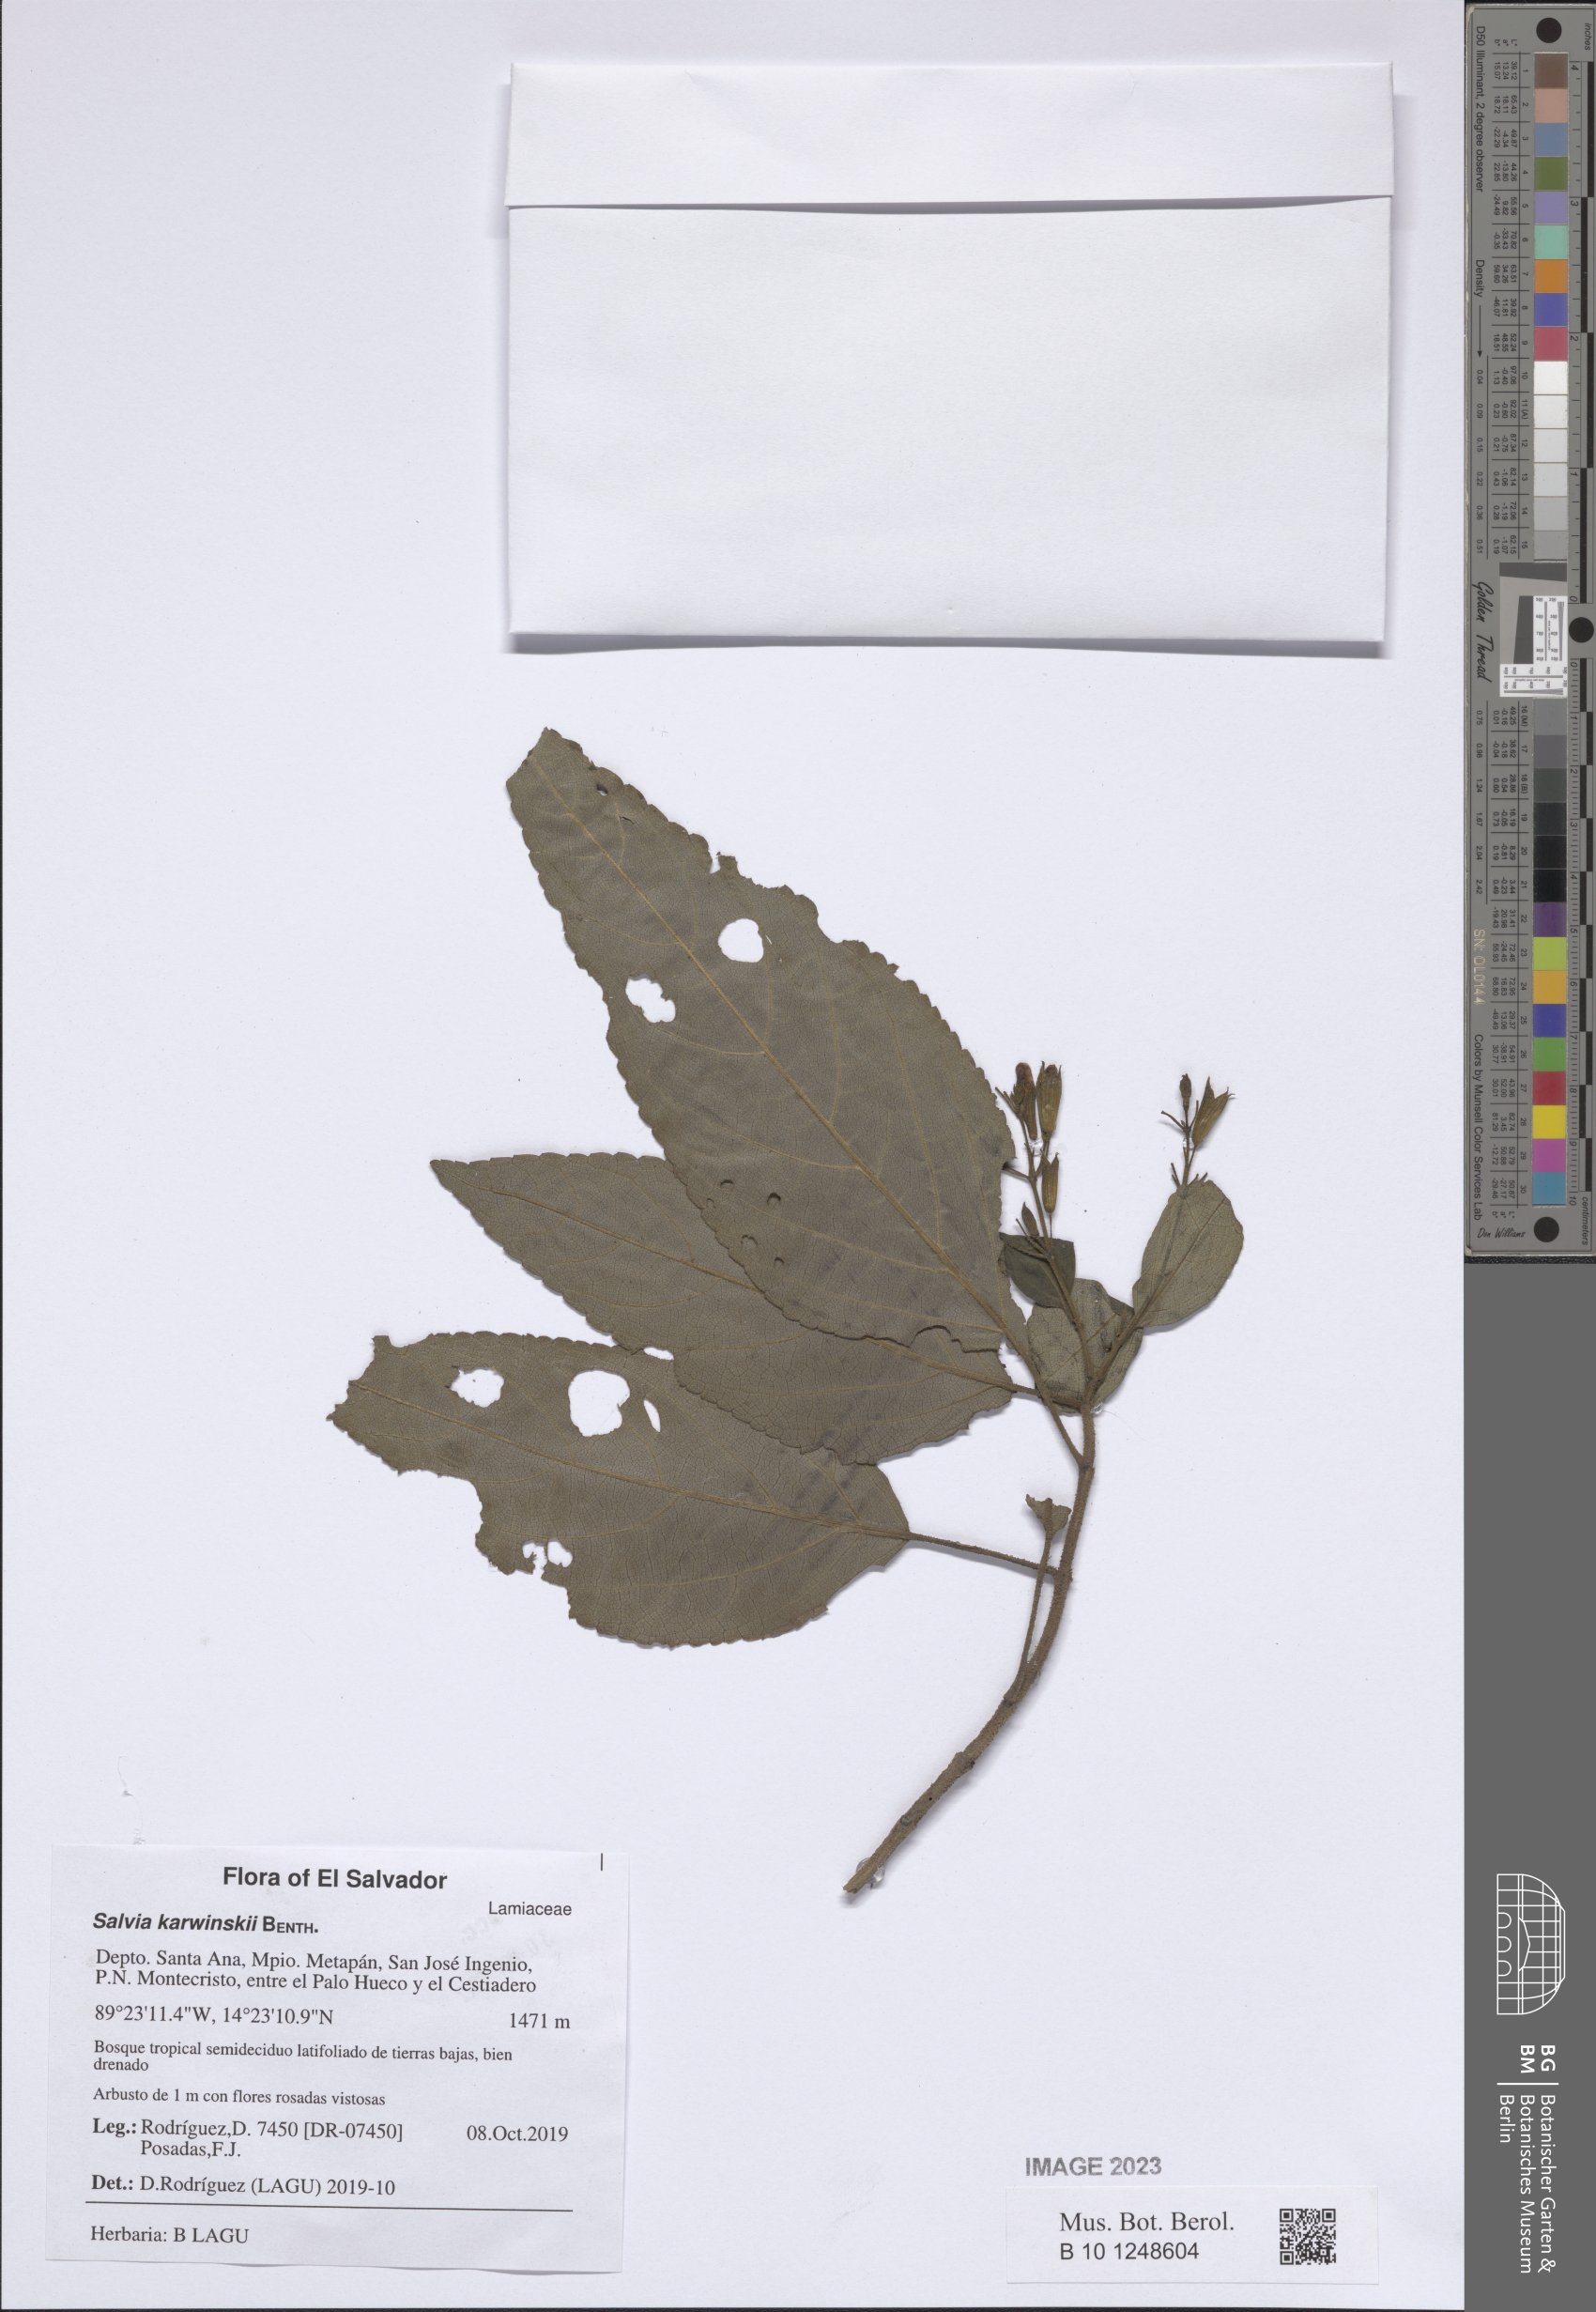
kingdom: Plantae
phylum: Tracheophyta
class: Magnoliopsida
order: Lamiales
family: Lamiaceae
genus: Salvia
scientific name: Salvia karwinskii
